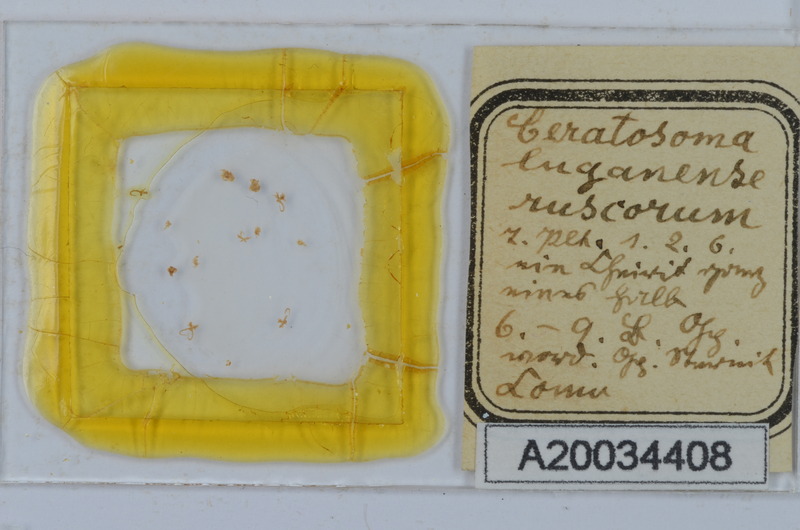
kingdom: Animalia
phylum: Arthropoda
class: Diplopoda
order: Chordeumatida
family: Craspedosomatidae
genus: Bomogona
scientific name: Bomogona lombardica
